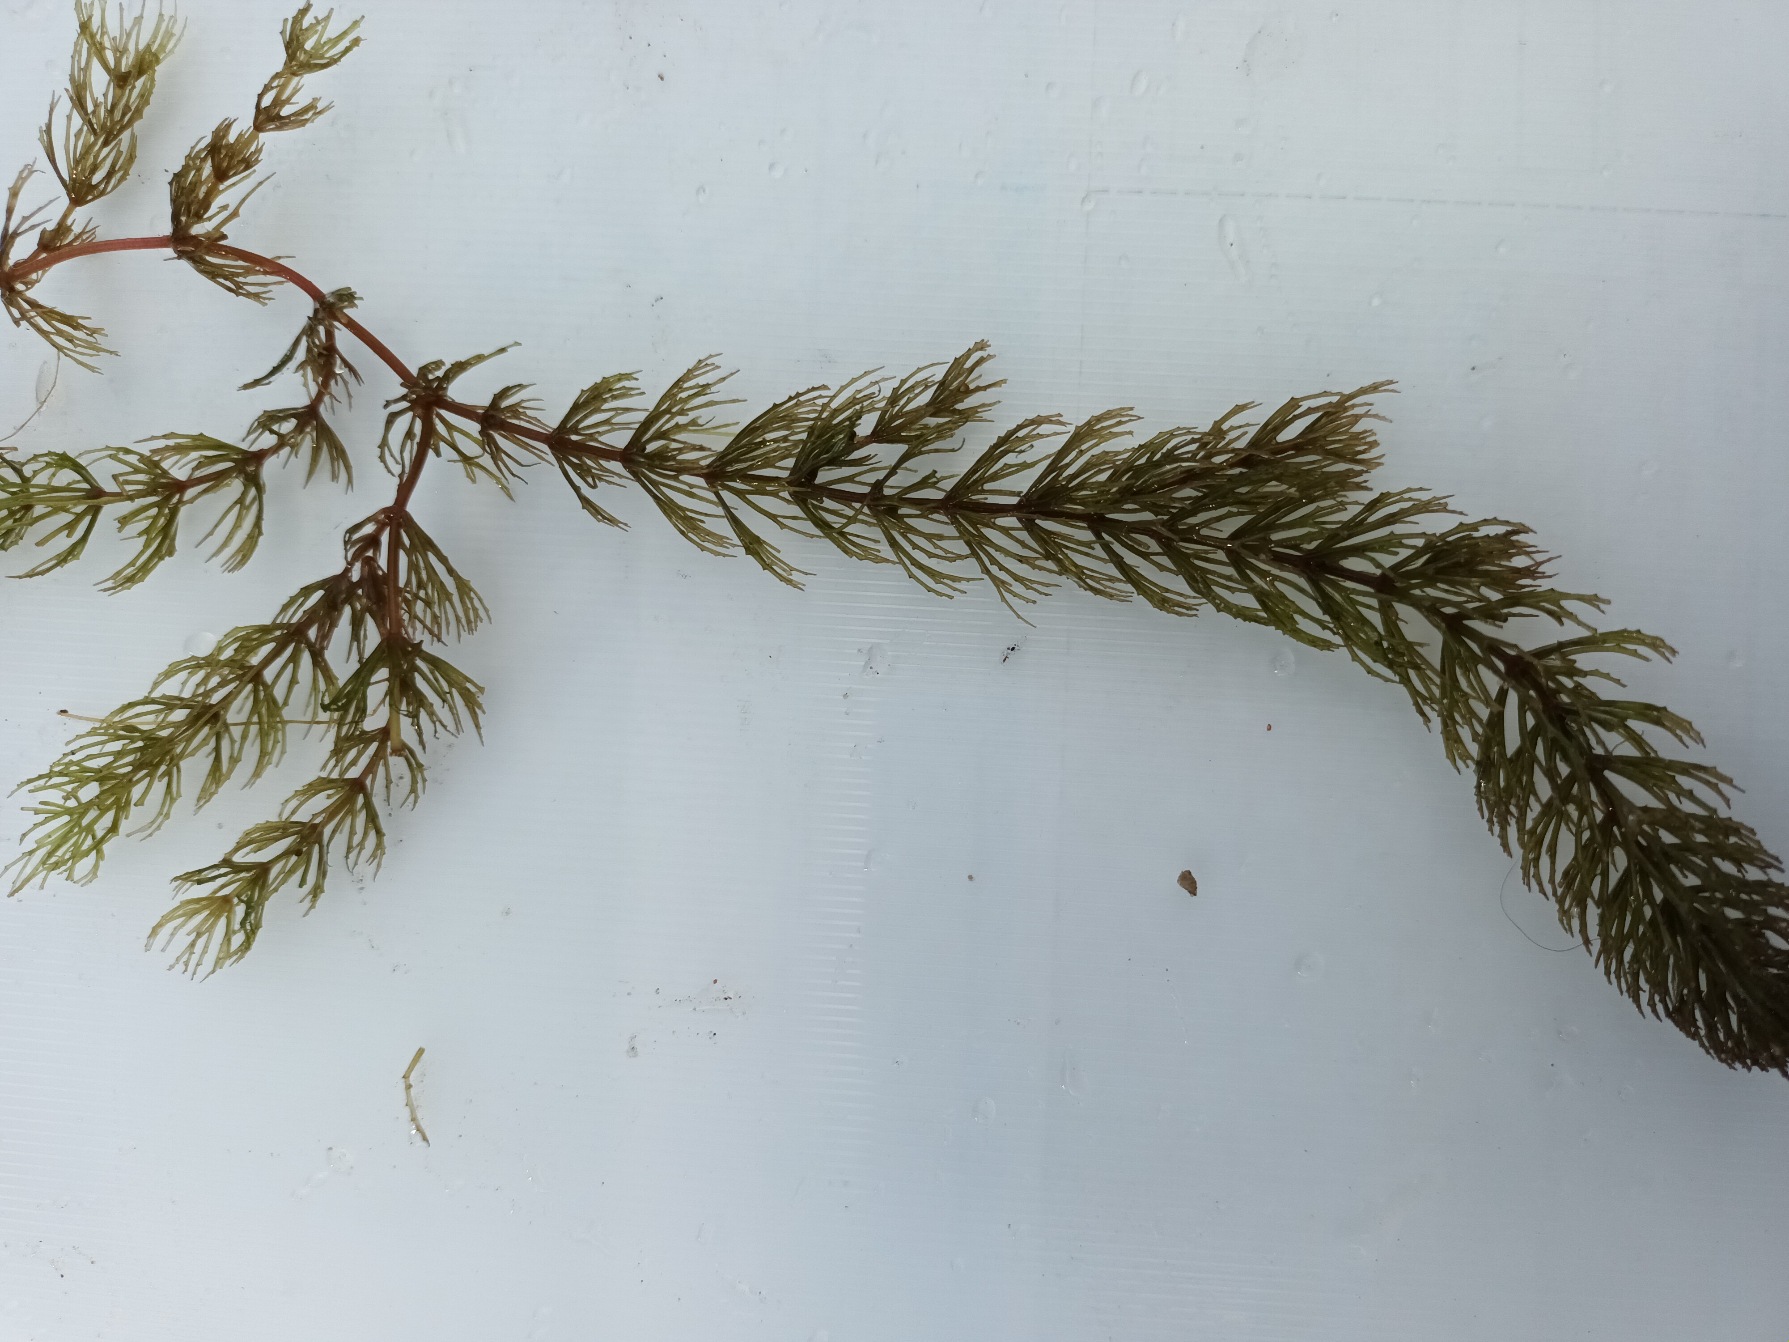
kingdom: Plantae
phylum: Tracheophyta
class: Magnoliopsida
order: Ceratophyllales
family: Ceratophyllaceae
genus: Ceratophyllum
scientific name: Ceratophyllum demersum
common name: Tornfrøet hornblad
